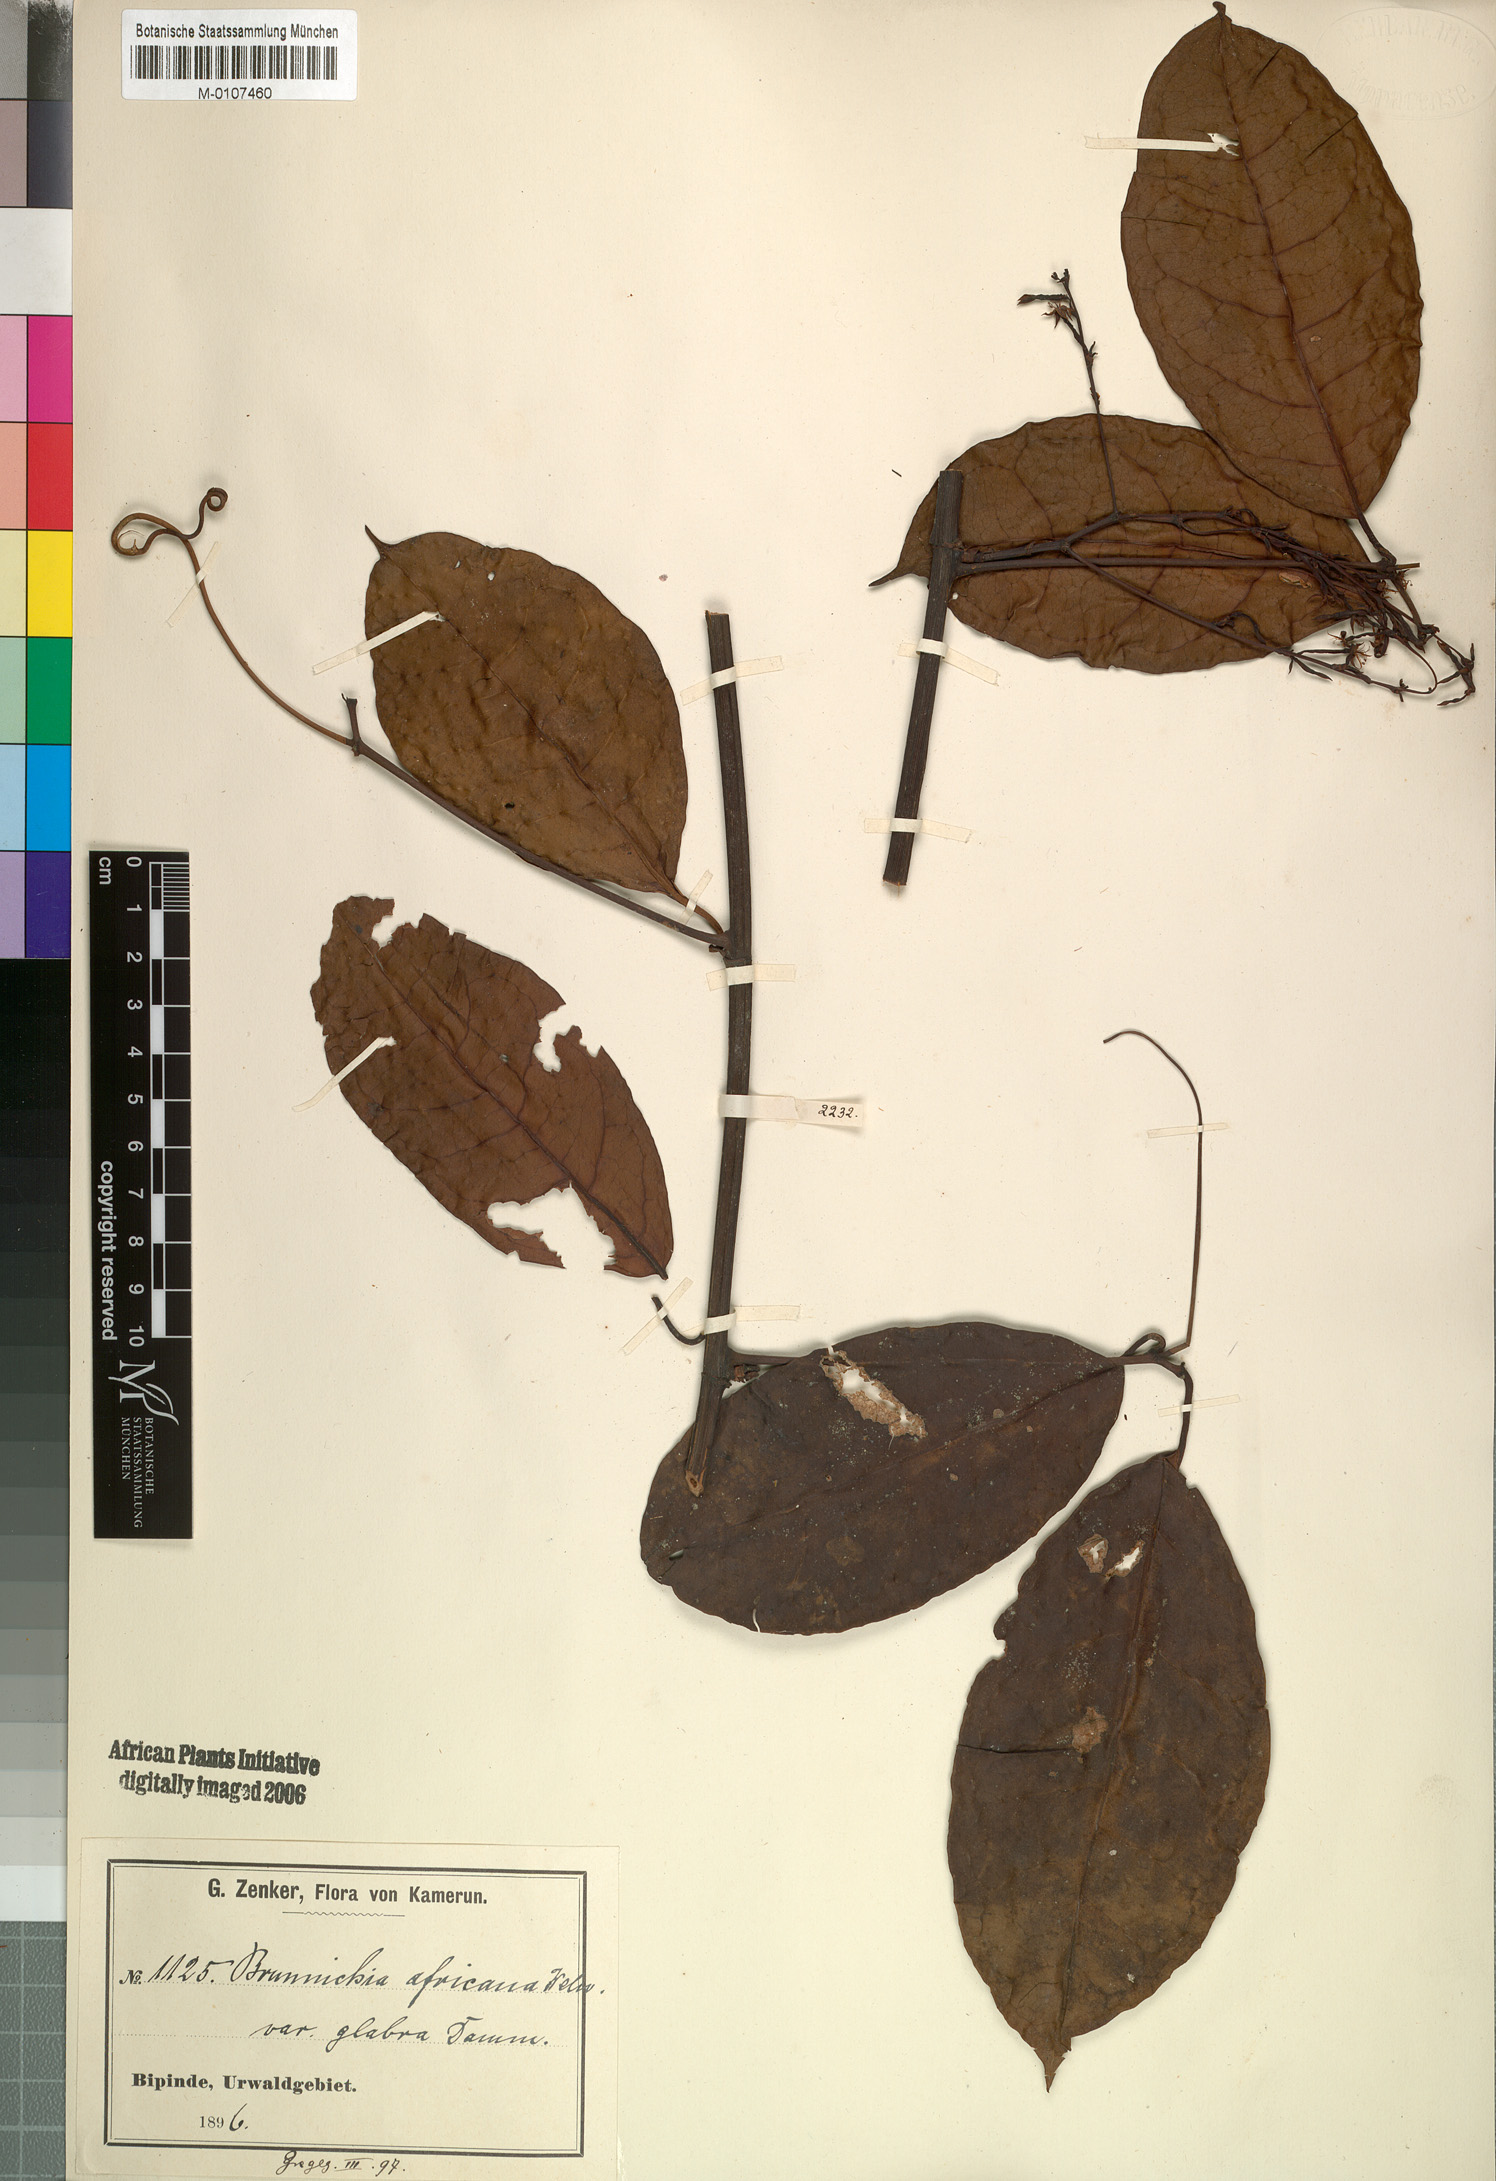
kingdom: Plantae
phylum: Tracheophyta
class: Magnoliopsida
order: Caryophyllales
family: Polygonaceae
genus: Afrobrunnichia
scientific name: Afrobrunnichia africana
